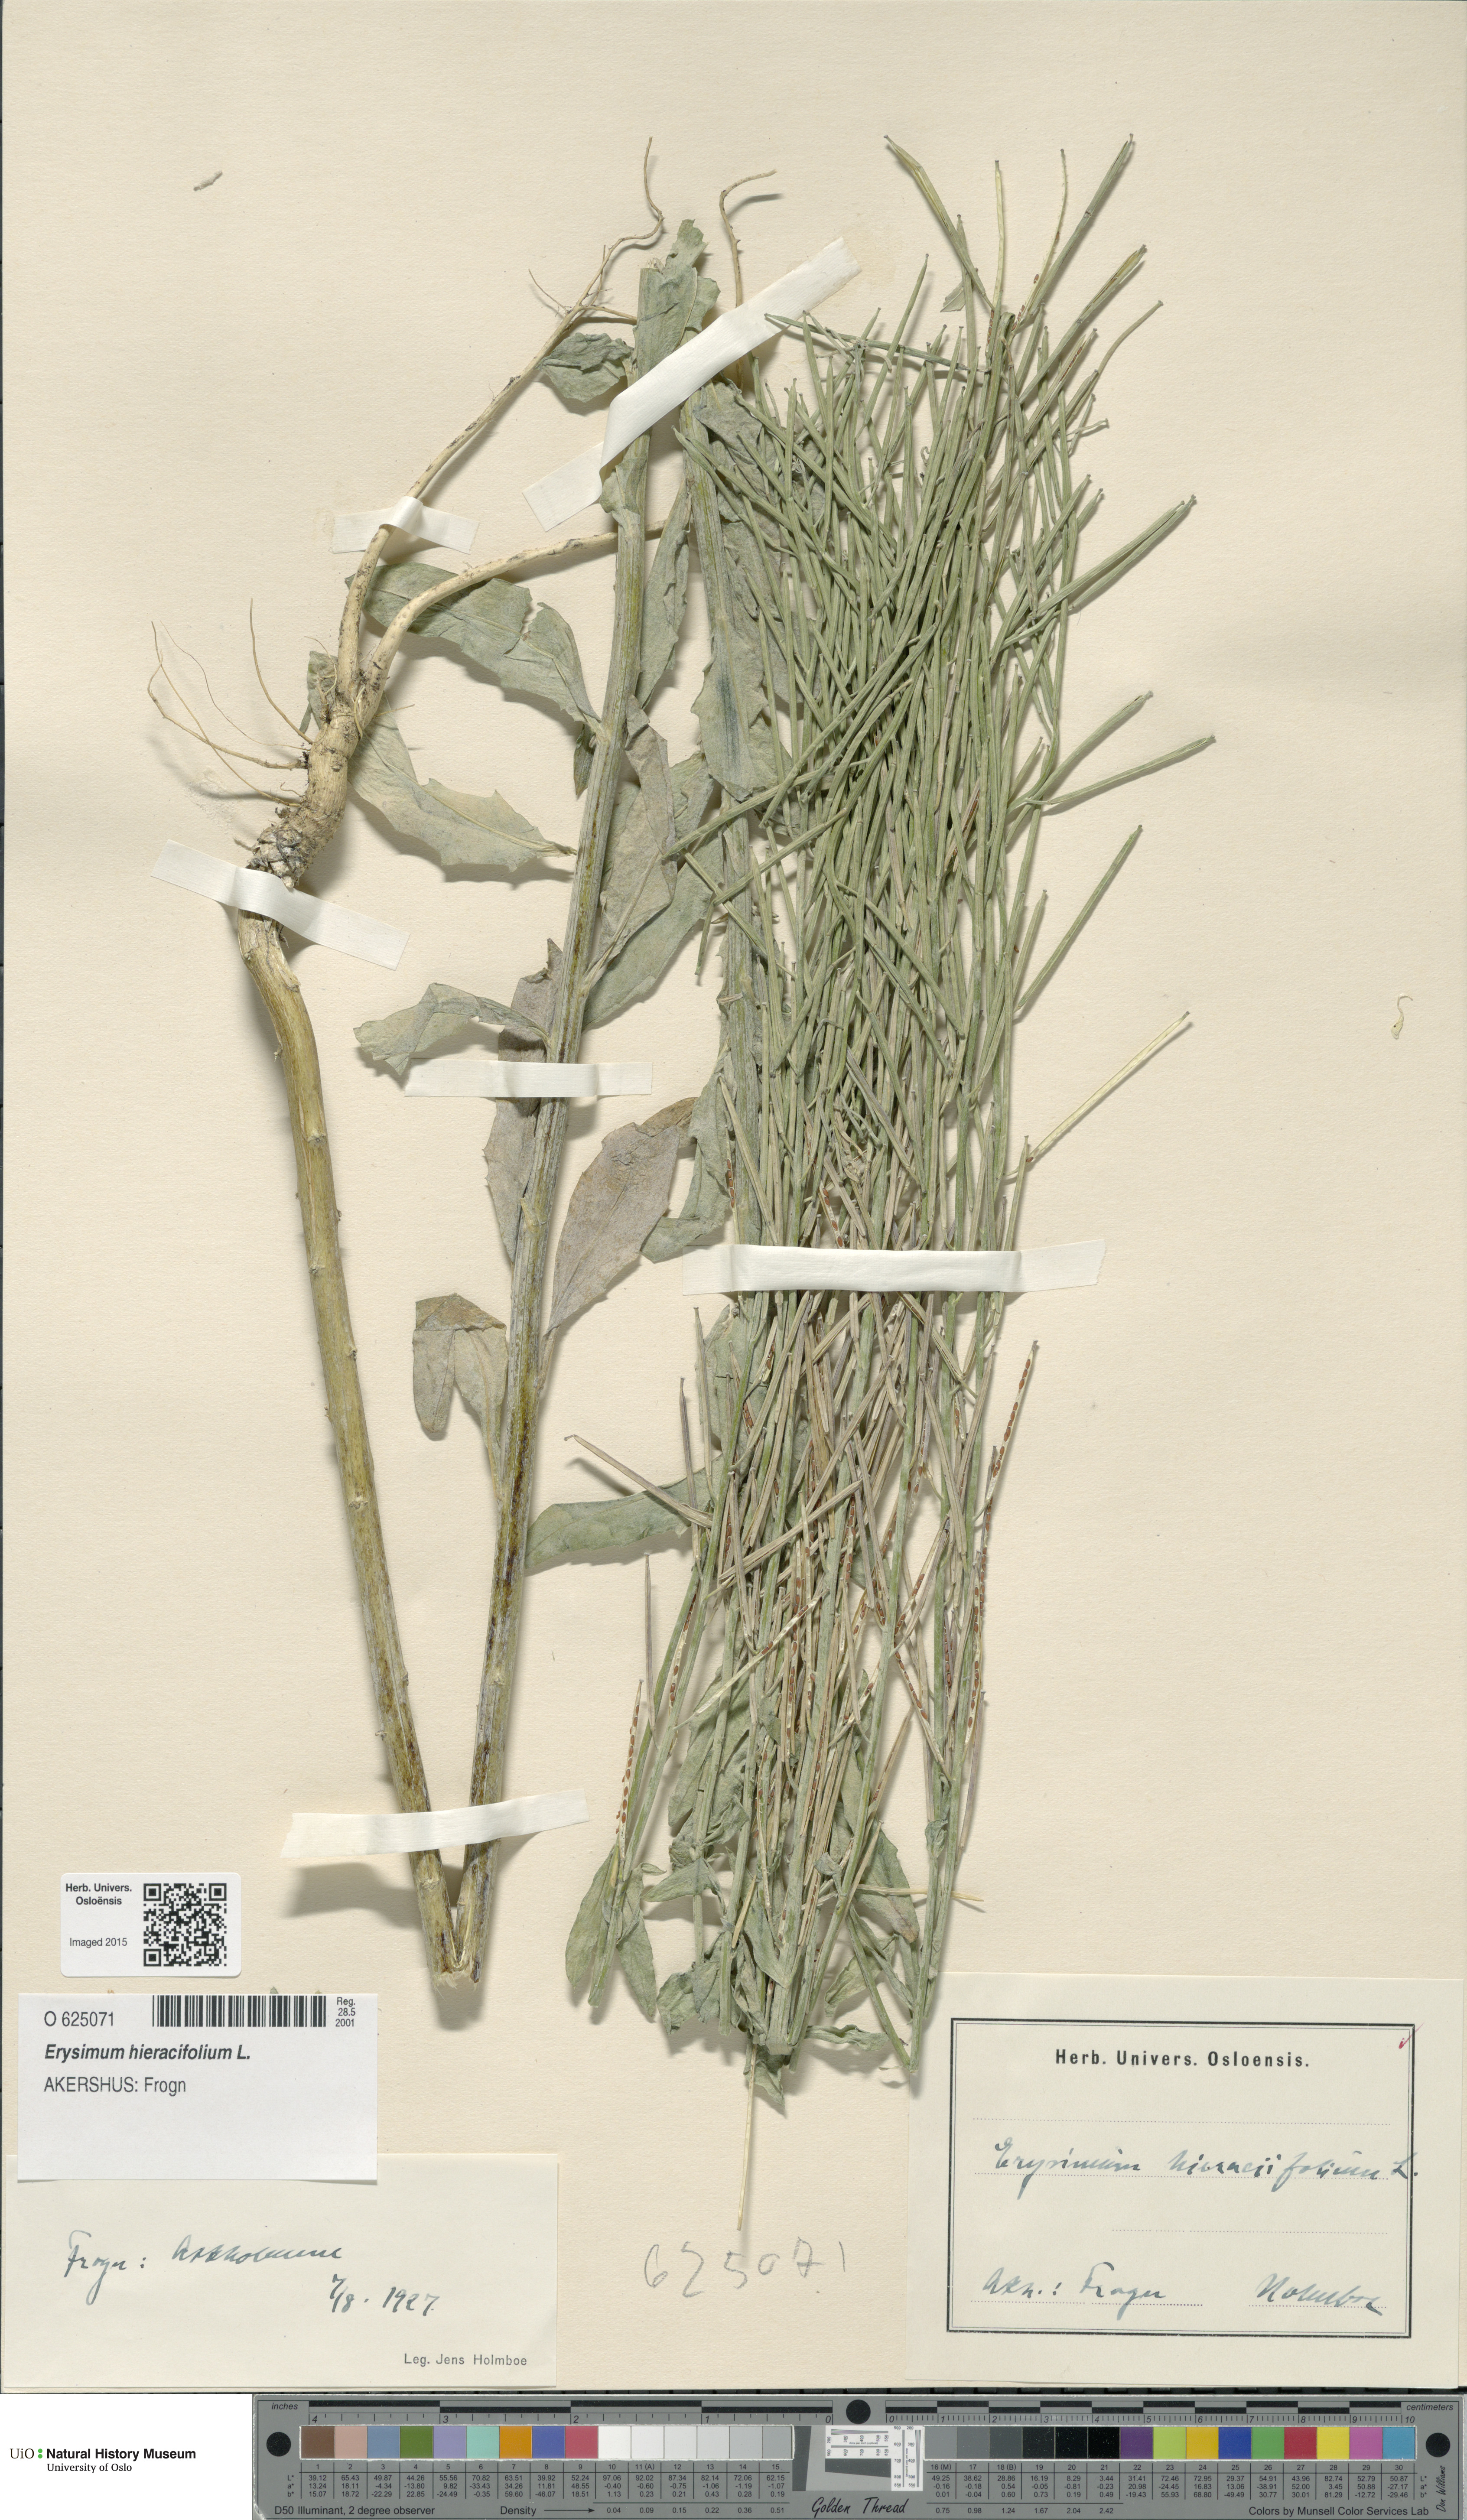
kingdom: Plantae
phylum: Tracheophyta
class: Magnoliopsida
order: Brassicales
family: Brassicaceae
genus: Erysimum
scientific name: Erysimum virgatum
